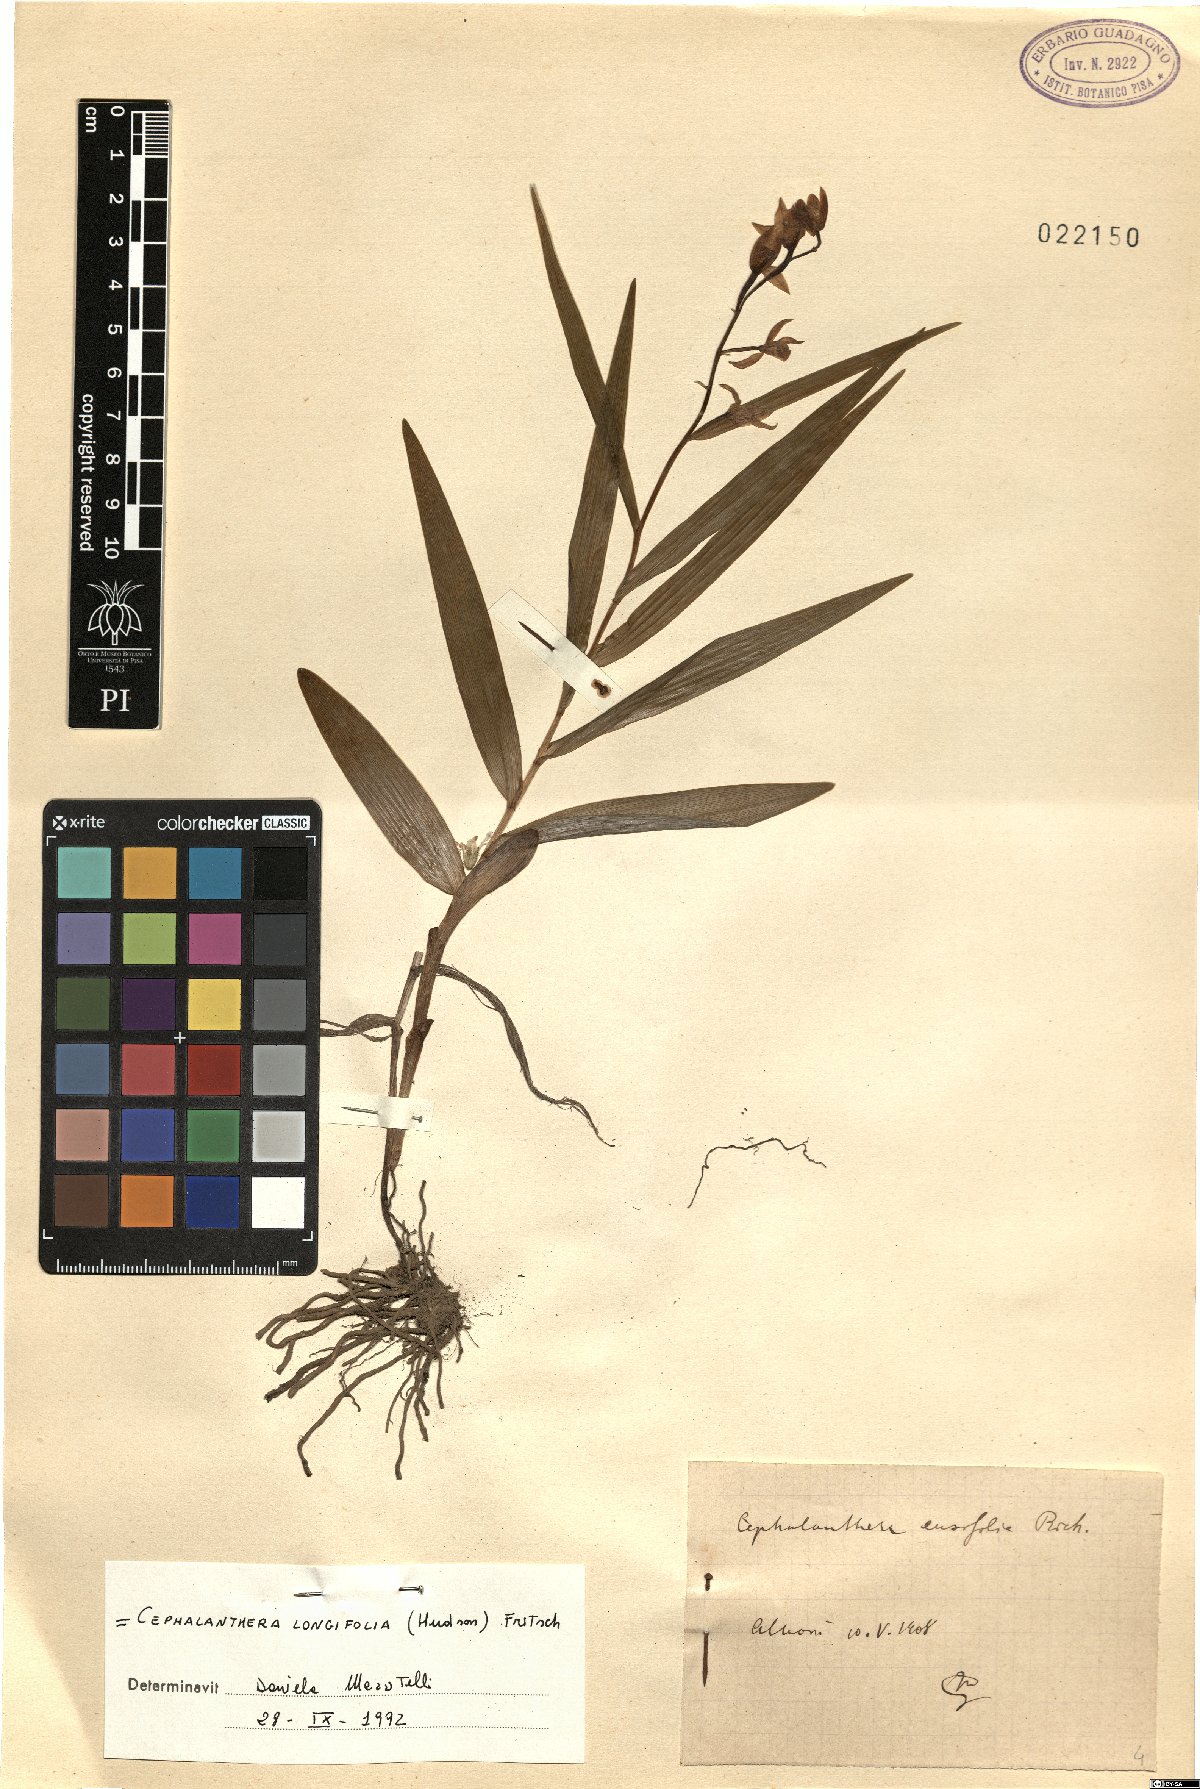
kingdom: Plantae
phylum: Tracheophyta
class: Liliopsida
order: Asparagales
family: Orchidaceae
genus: Cephalanthera
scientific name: Cephalanthera longifolia
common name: Narrow-leaved helleborine
